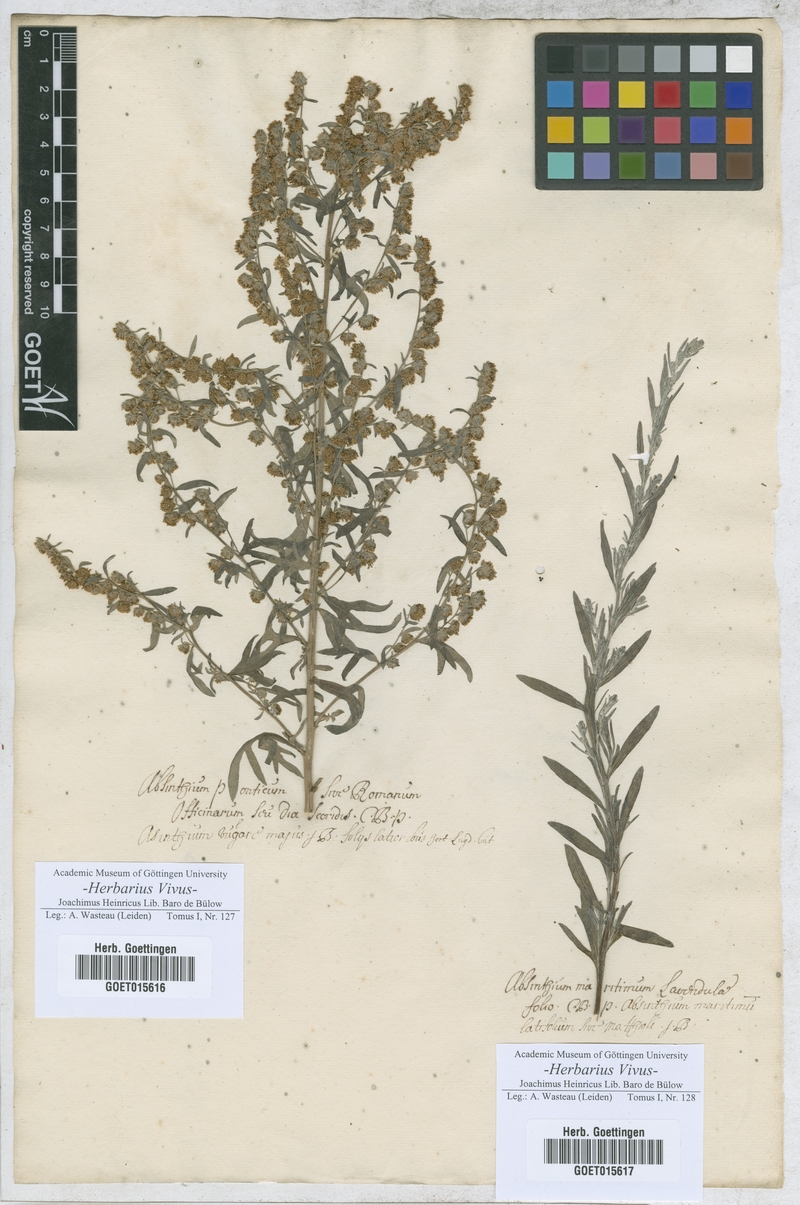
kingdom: Plantae
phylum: Tracheophyta
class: Magnoliopsida
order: Asterales
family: Asteraceae
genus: Artemisia
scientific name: Artemisia pontica
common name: Roman wormwood
